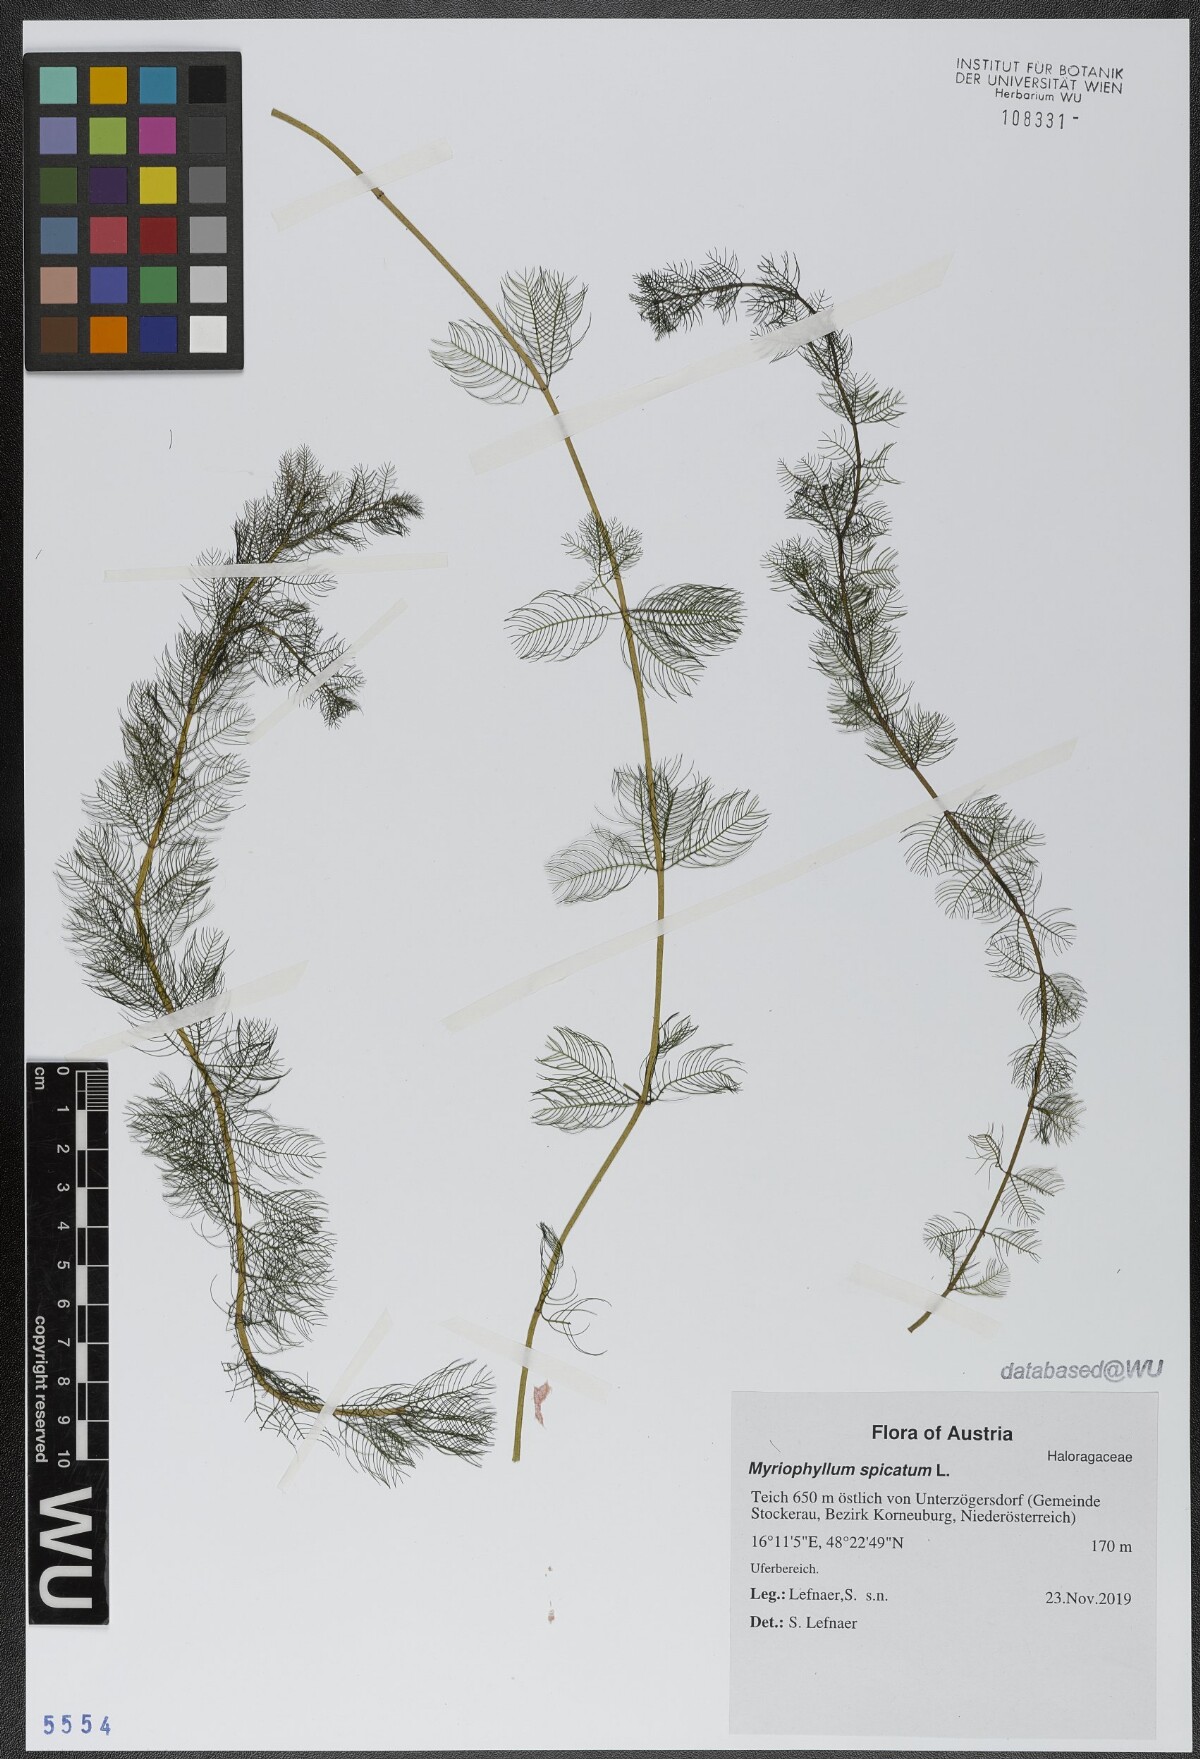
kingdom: Plantae
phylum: Tracheophyta
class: Magnoliopsida
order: Saxifragales
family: Haloragaceae
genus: Myriophyllum
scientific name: Myriophyllum spicatum
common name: Spiked water-milfoil
